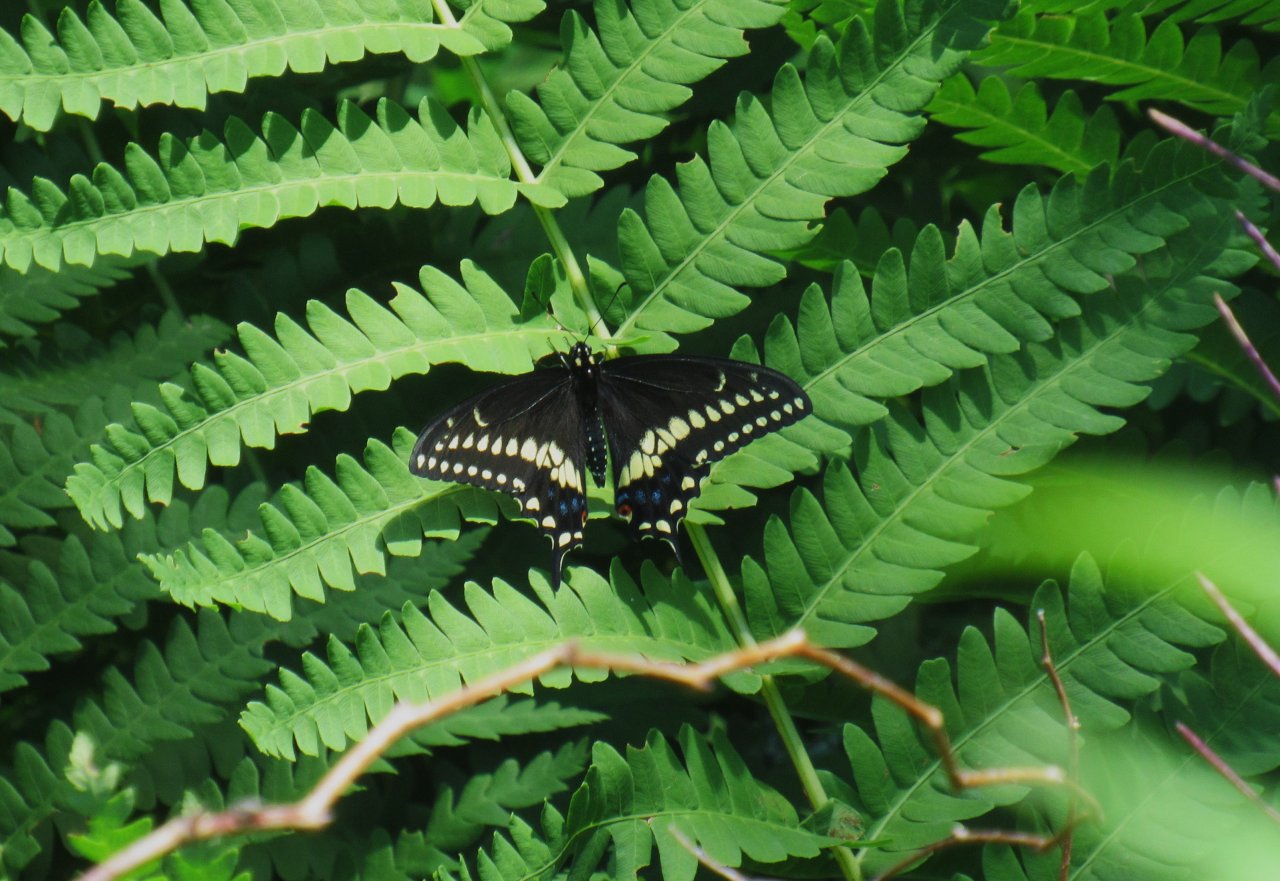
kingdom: Animalia
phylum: Arthropoda
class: Insecta
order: Lepidoptera
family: Papilionidae
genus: Papilio
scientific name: Papilio polyxenes
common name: Black Swallowtail
